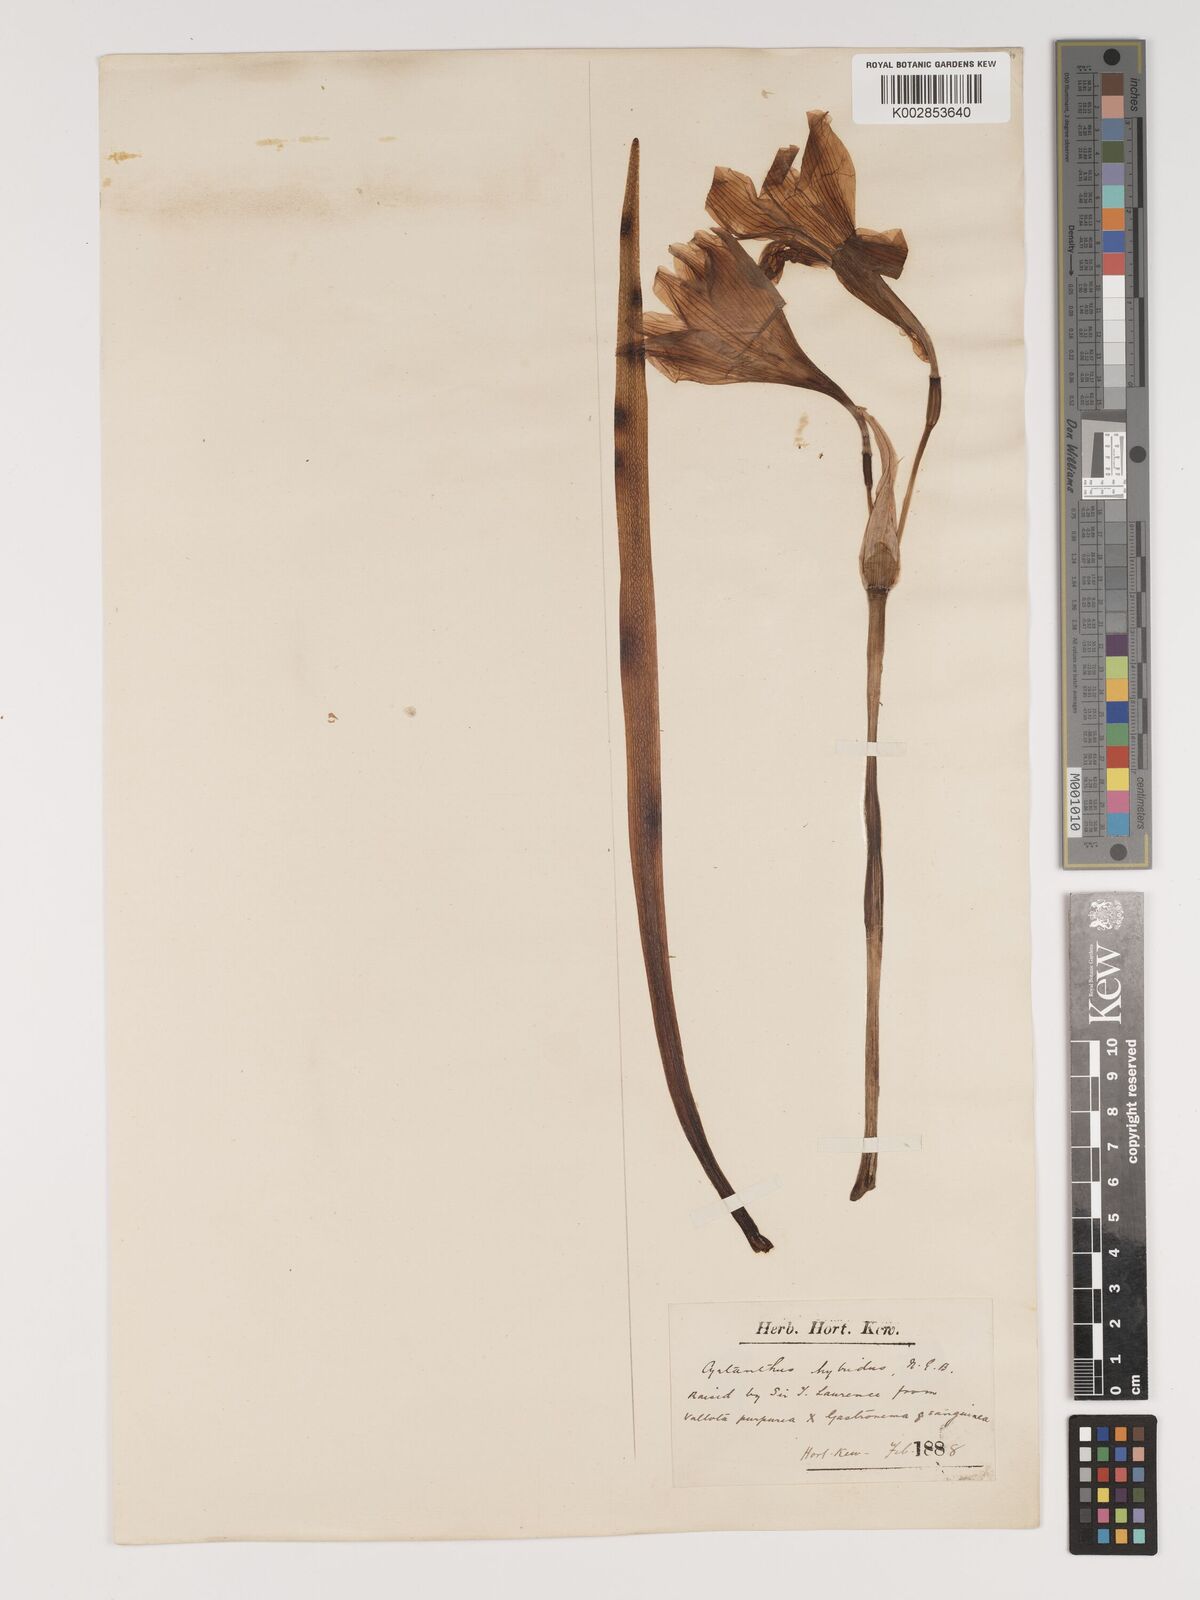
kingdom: Plantae
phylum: Tracheophyta
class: Liliopsida
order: Asparagales
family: Amaryllidaceae
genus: Cyrtanthus
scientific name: Cyrtanthus hybridus
